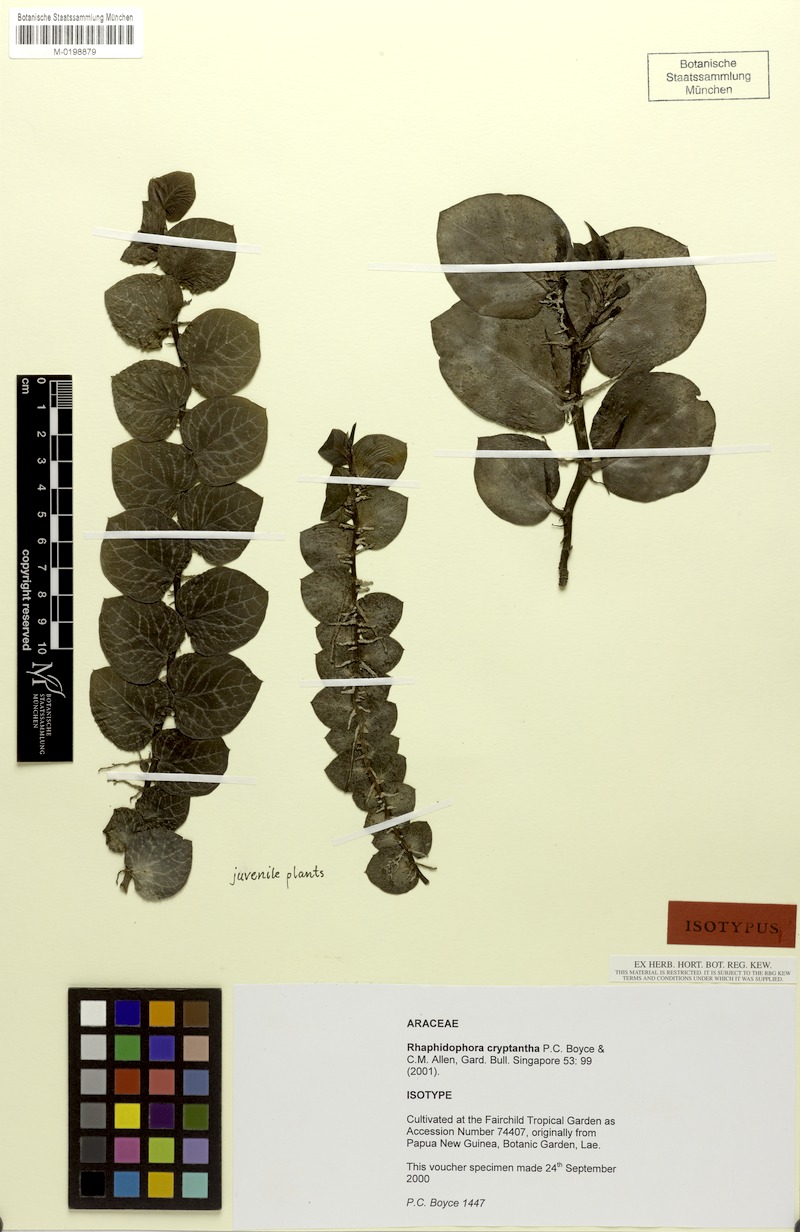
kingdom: Plantae
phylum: Tracheophyta
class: Liliopsida
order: Alismatales
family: Araceae
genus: Rhaphidophora
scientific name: Rhaphidophora cryptantha
